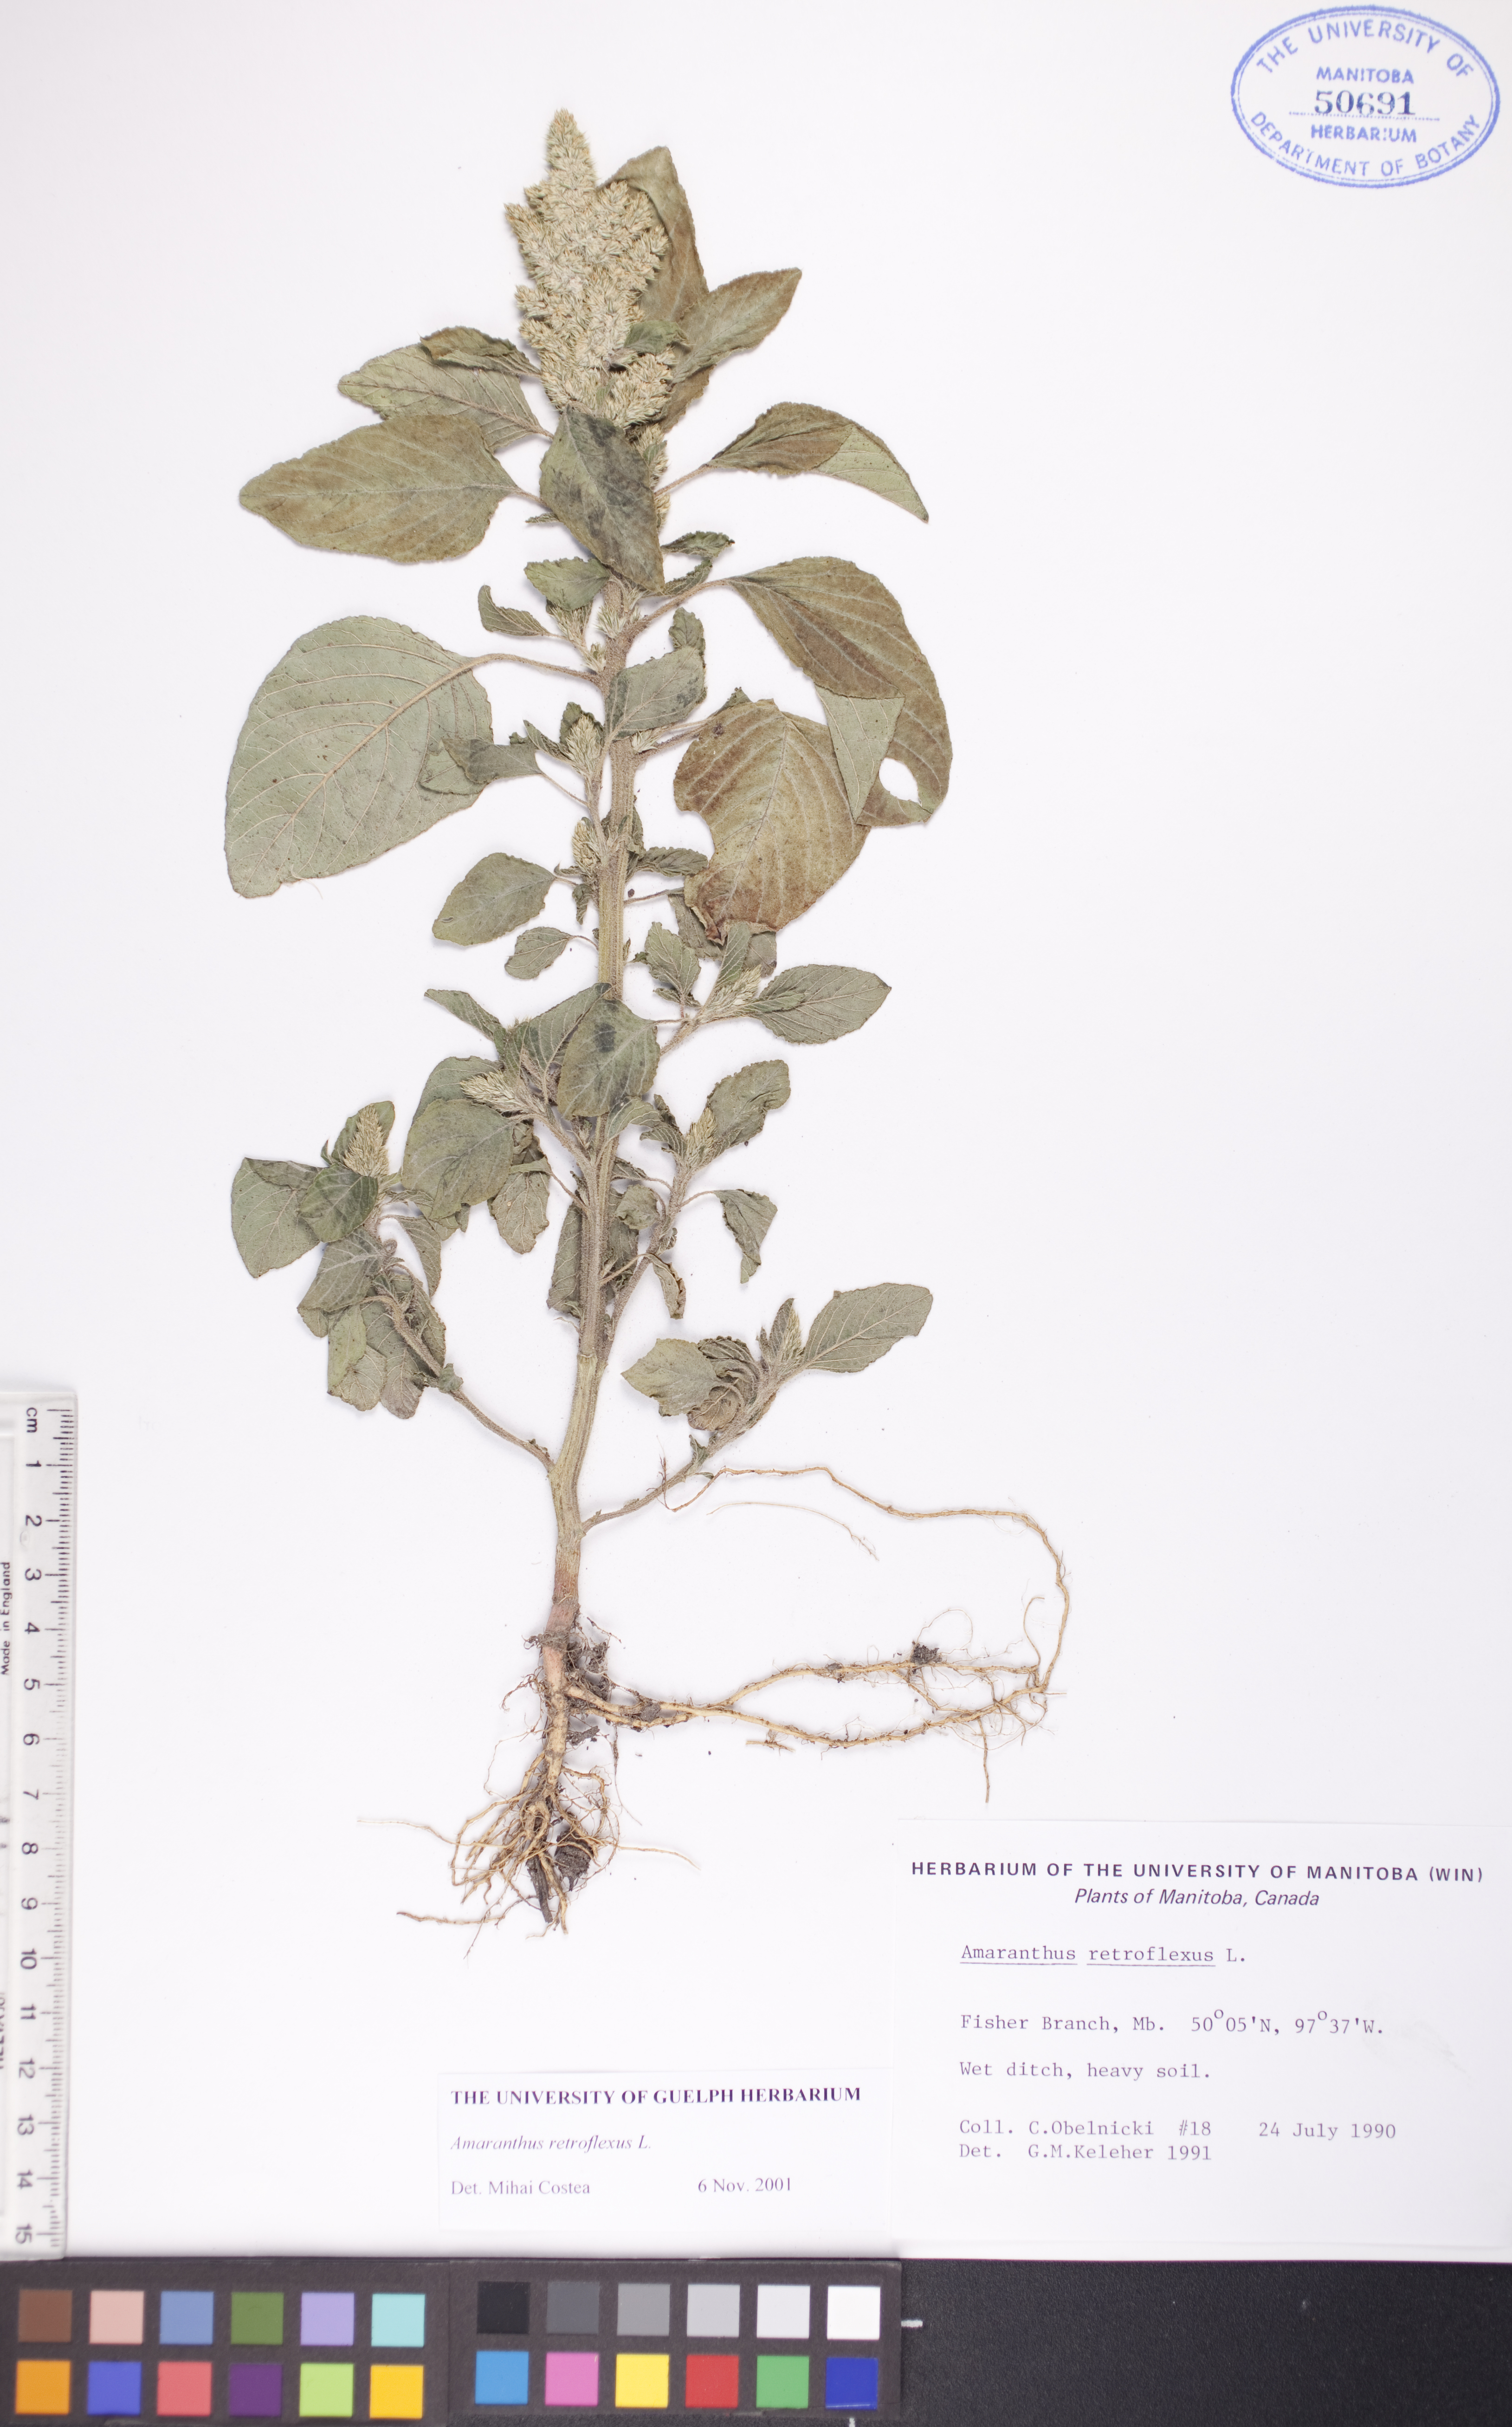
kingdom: Plantae
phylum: Tracheophyta
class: Magnoliopsida
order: Caryophyllales
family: Amaranthaceae
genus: Amaranthus
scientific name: Amaranthus retroflexus
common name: Redroot amaranth
